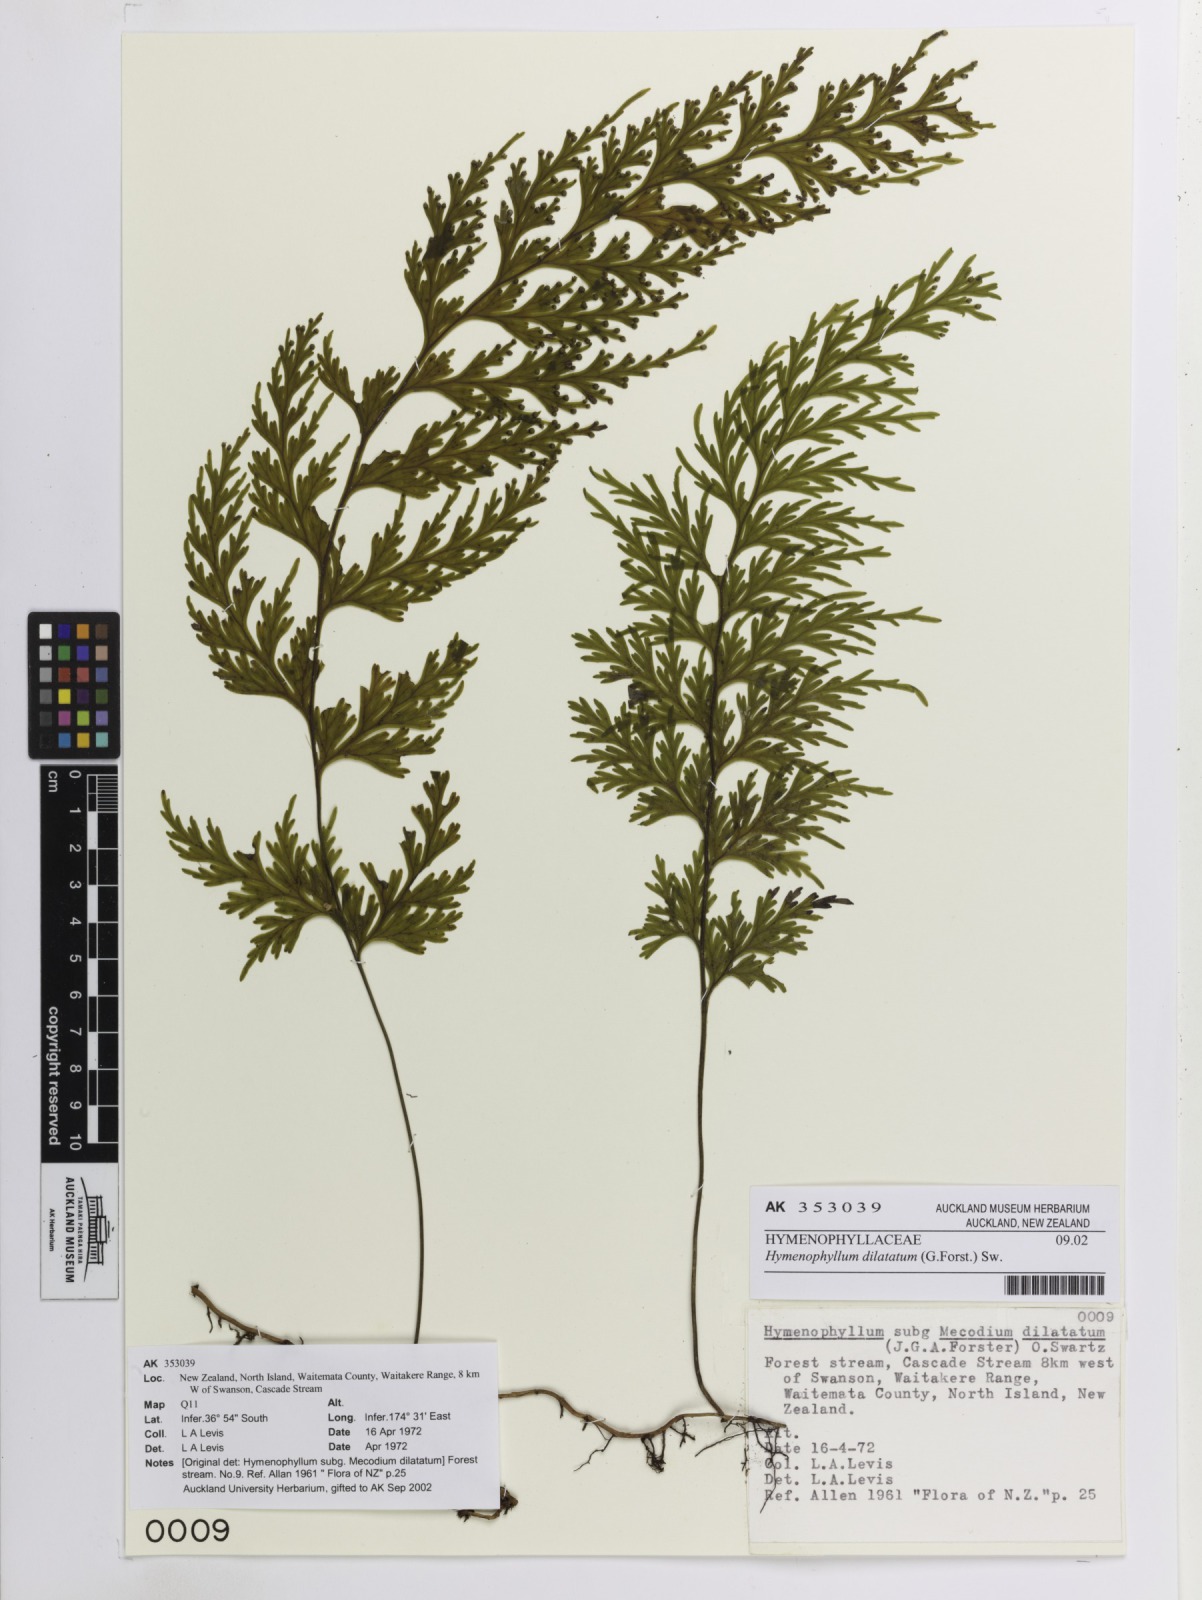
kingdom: Plantae
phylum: Tracheophyta
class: Polypodiopsida
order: Hymenophyllales
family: Hymenophyllaceae
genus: Hymenophyllum
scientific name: Hymenophyllum dilatatum
